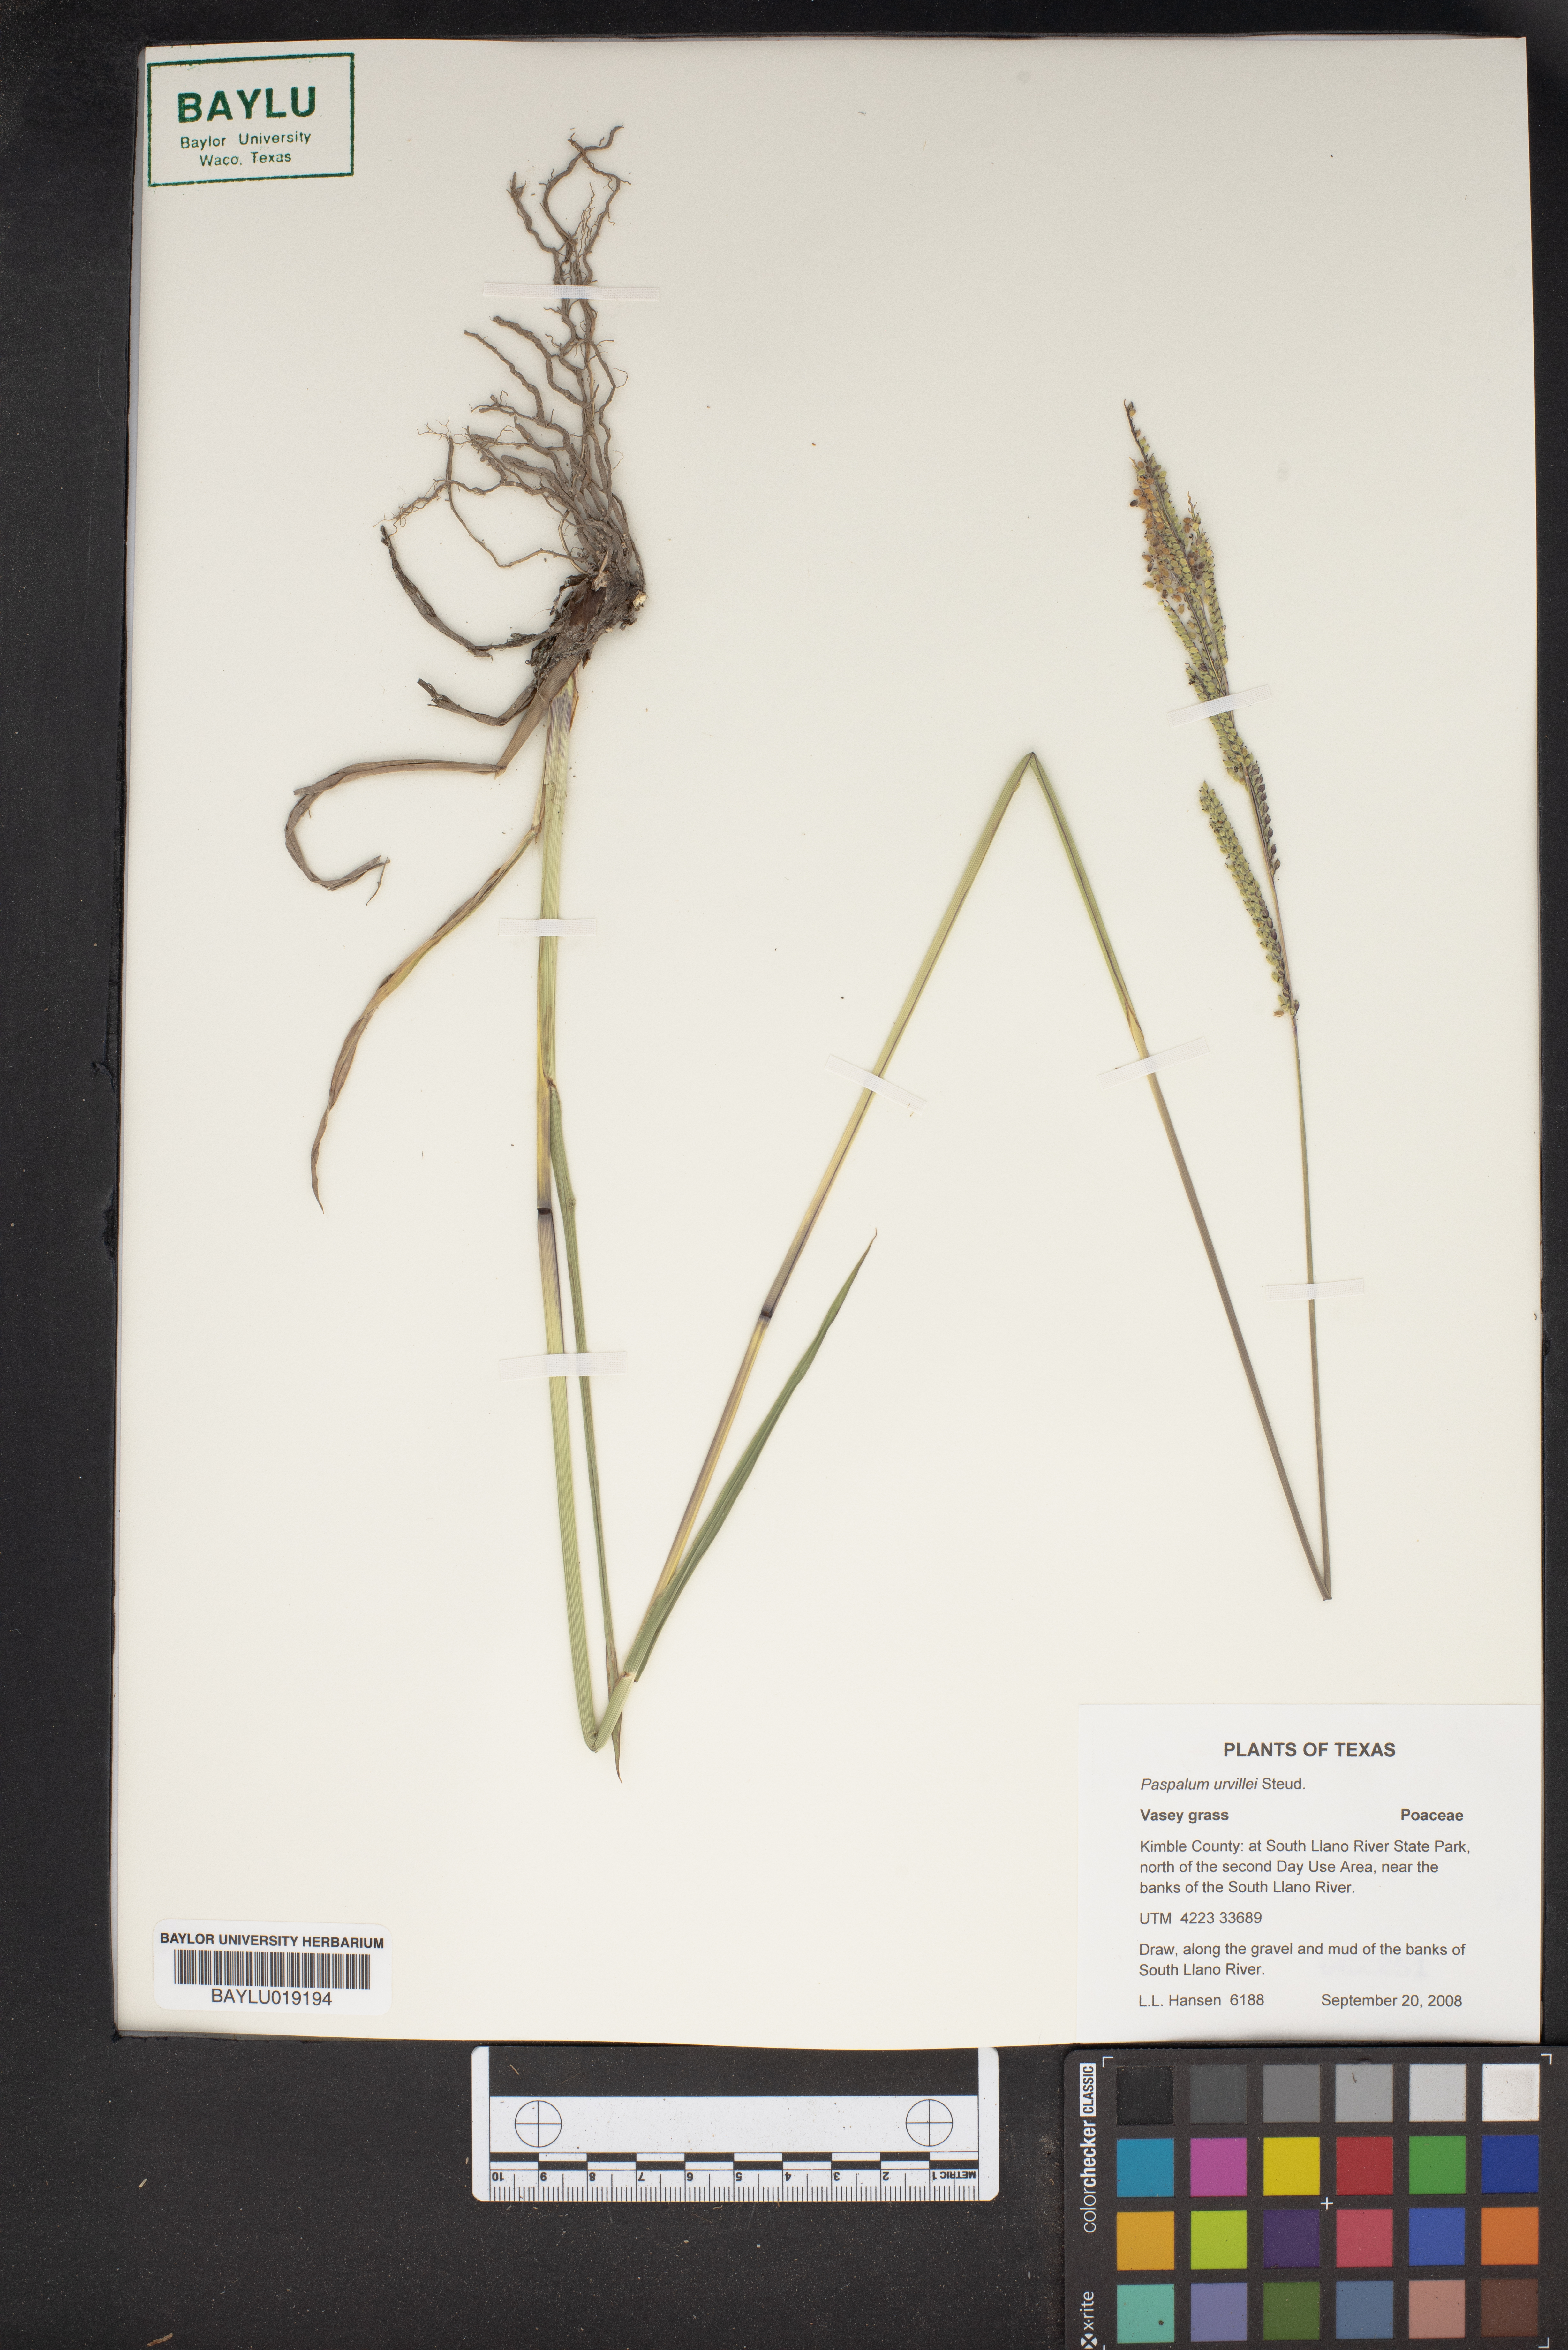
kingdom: Plantae
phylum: Tracheophyta
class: Liliopsida
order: Poales
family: Poaceae
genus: Paspalum
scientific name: Paspalum urvillei
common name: Vasey's grass
